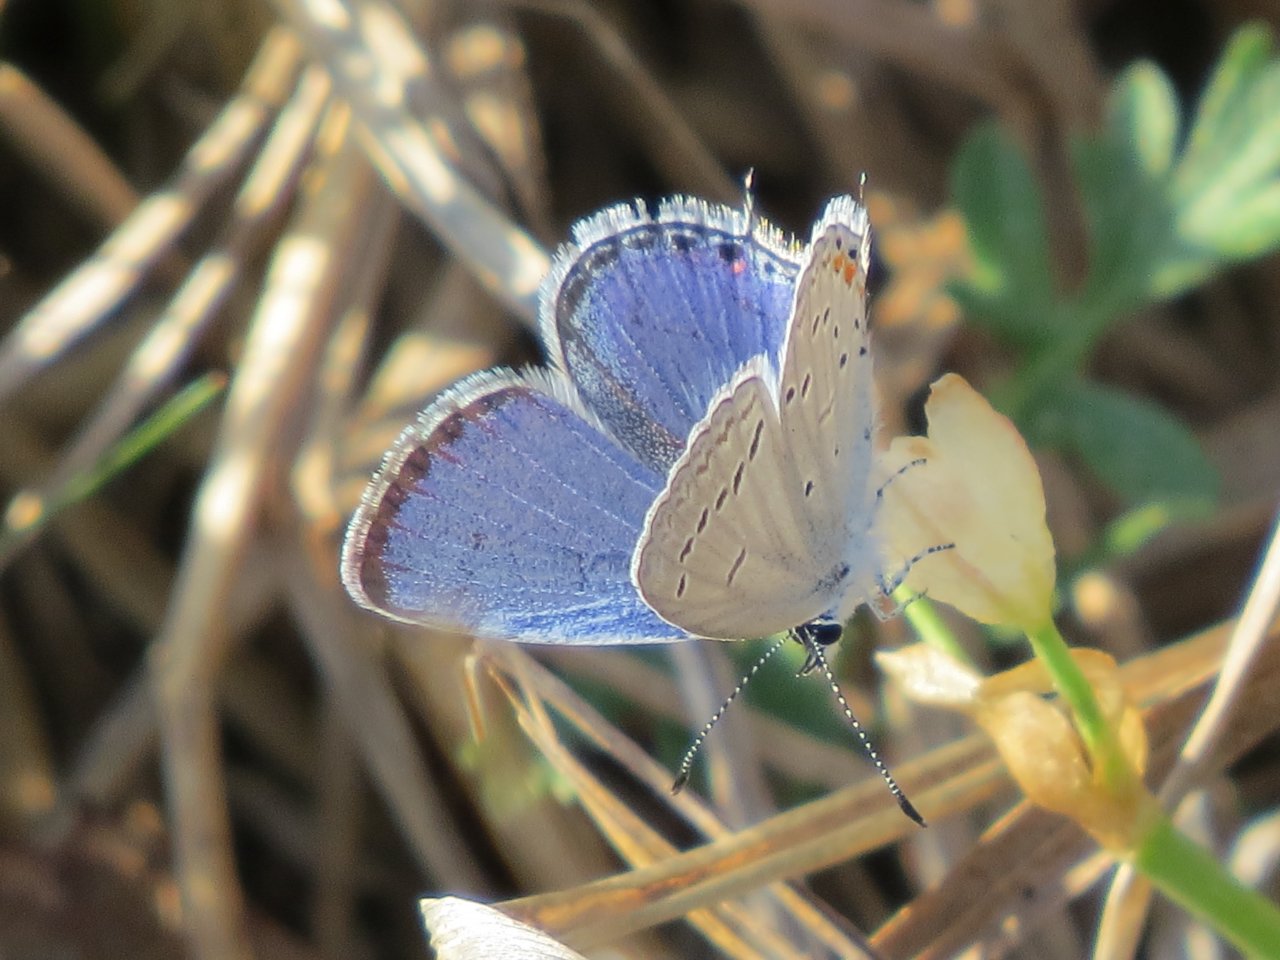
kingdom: Animalia
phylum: Arthropoda
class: Insecta
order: Lepidoptera
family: Lycaenidae
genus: Elkalyce
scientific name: Elkalyce comyntas
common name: Eastern Tailed-Blue
